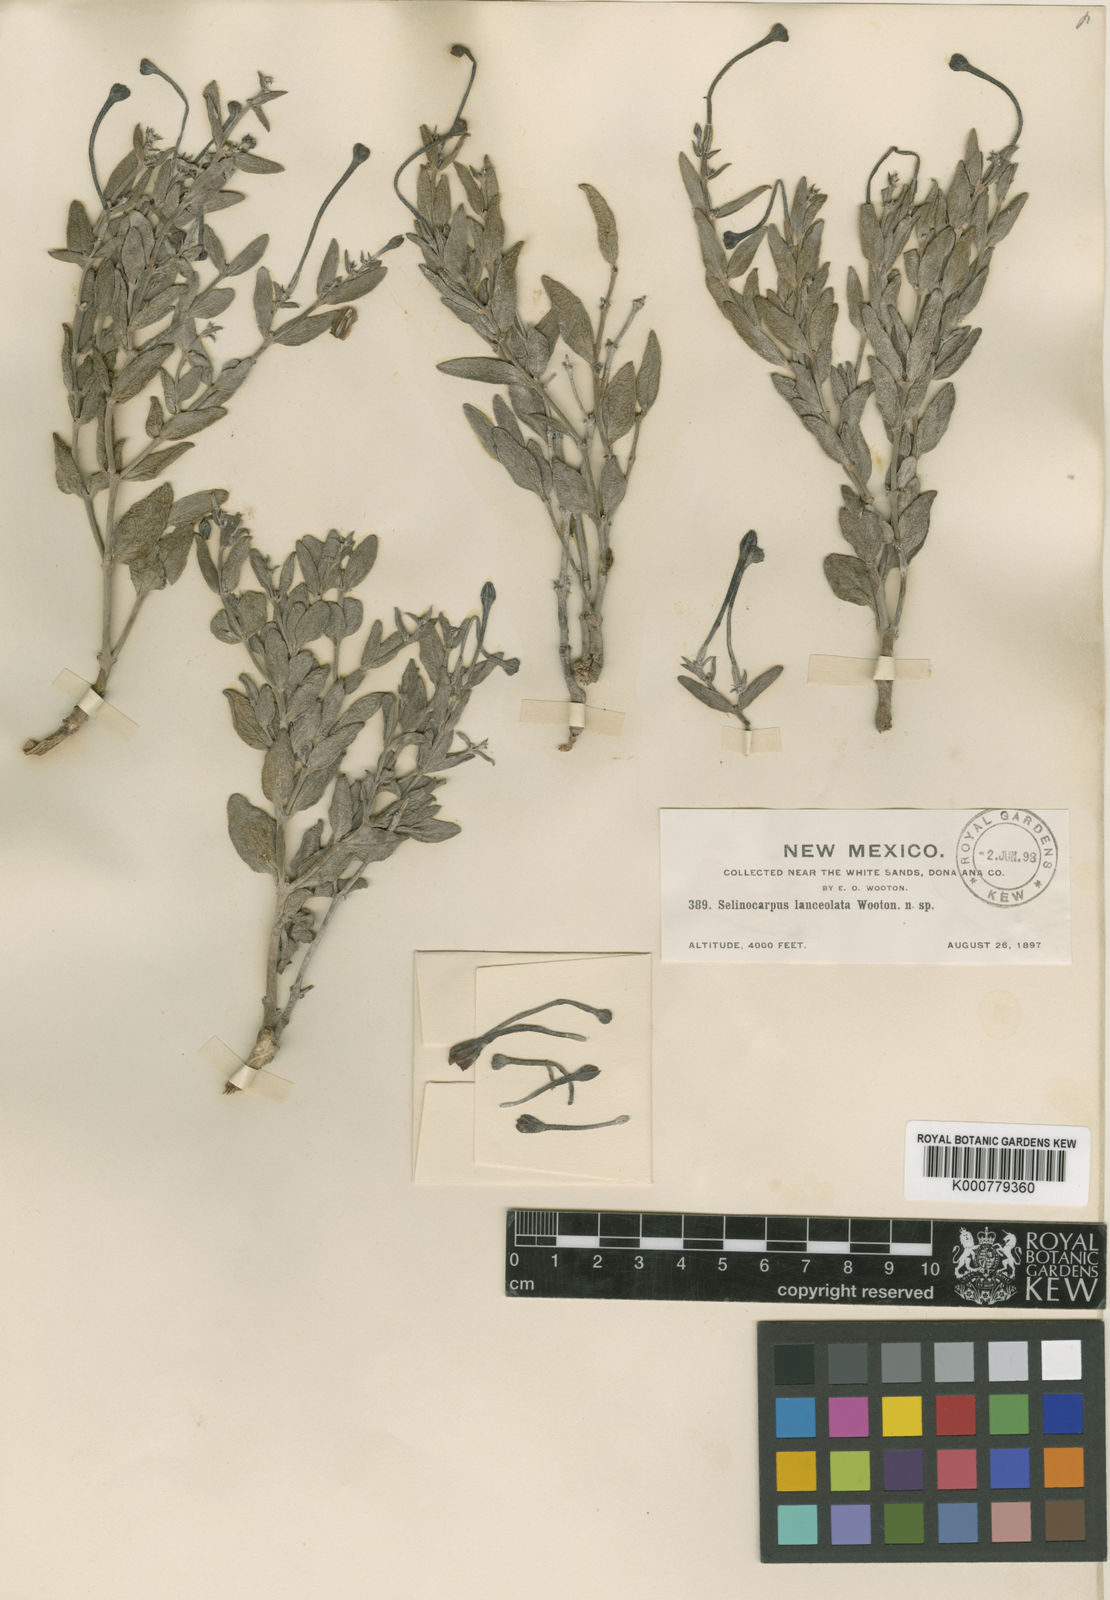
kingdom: Plantae
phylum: Tracheophyta
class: Magnoliopsida
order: Caryophyllales
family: Nyctaginaceae
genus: Acleisanthes
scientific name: Acleisanthes lanceolata
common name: Gypsum moonpod
